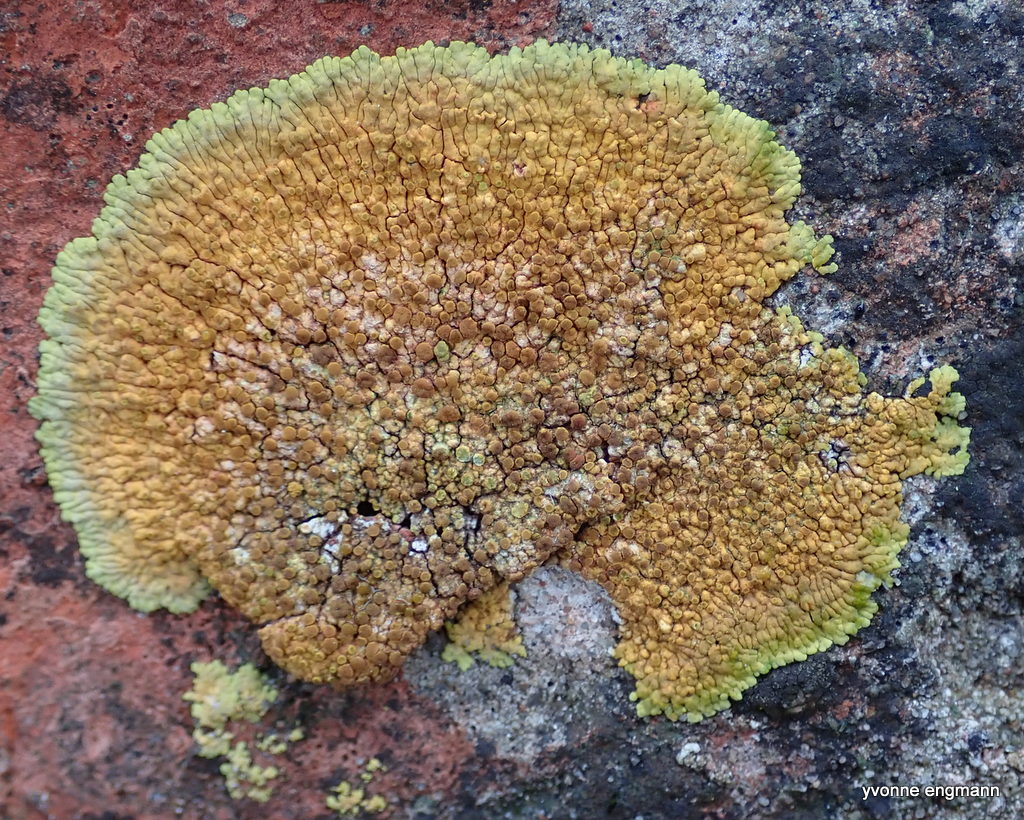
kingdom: Fungi
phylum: Ascomycota
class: Lecanoromycetes
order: Teloschistales
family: Teloschistaceae
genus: Variospora
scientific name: Variospora flavescens
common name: kalk-orangelav
